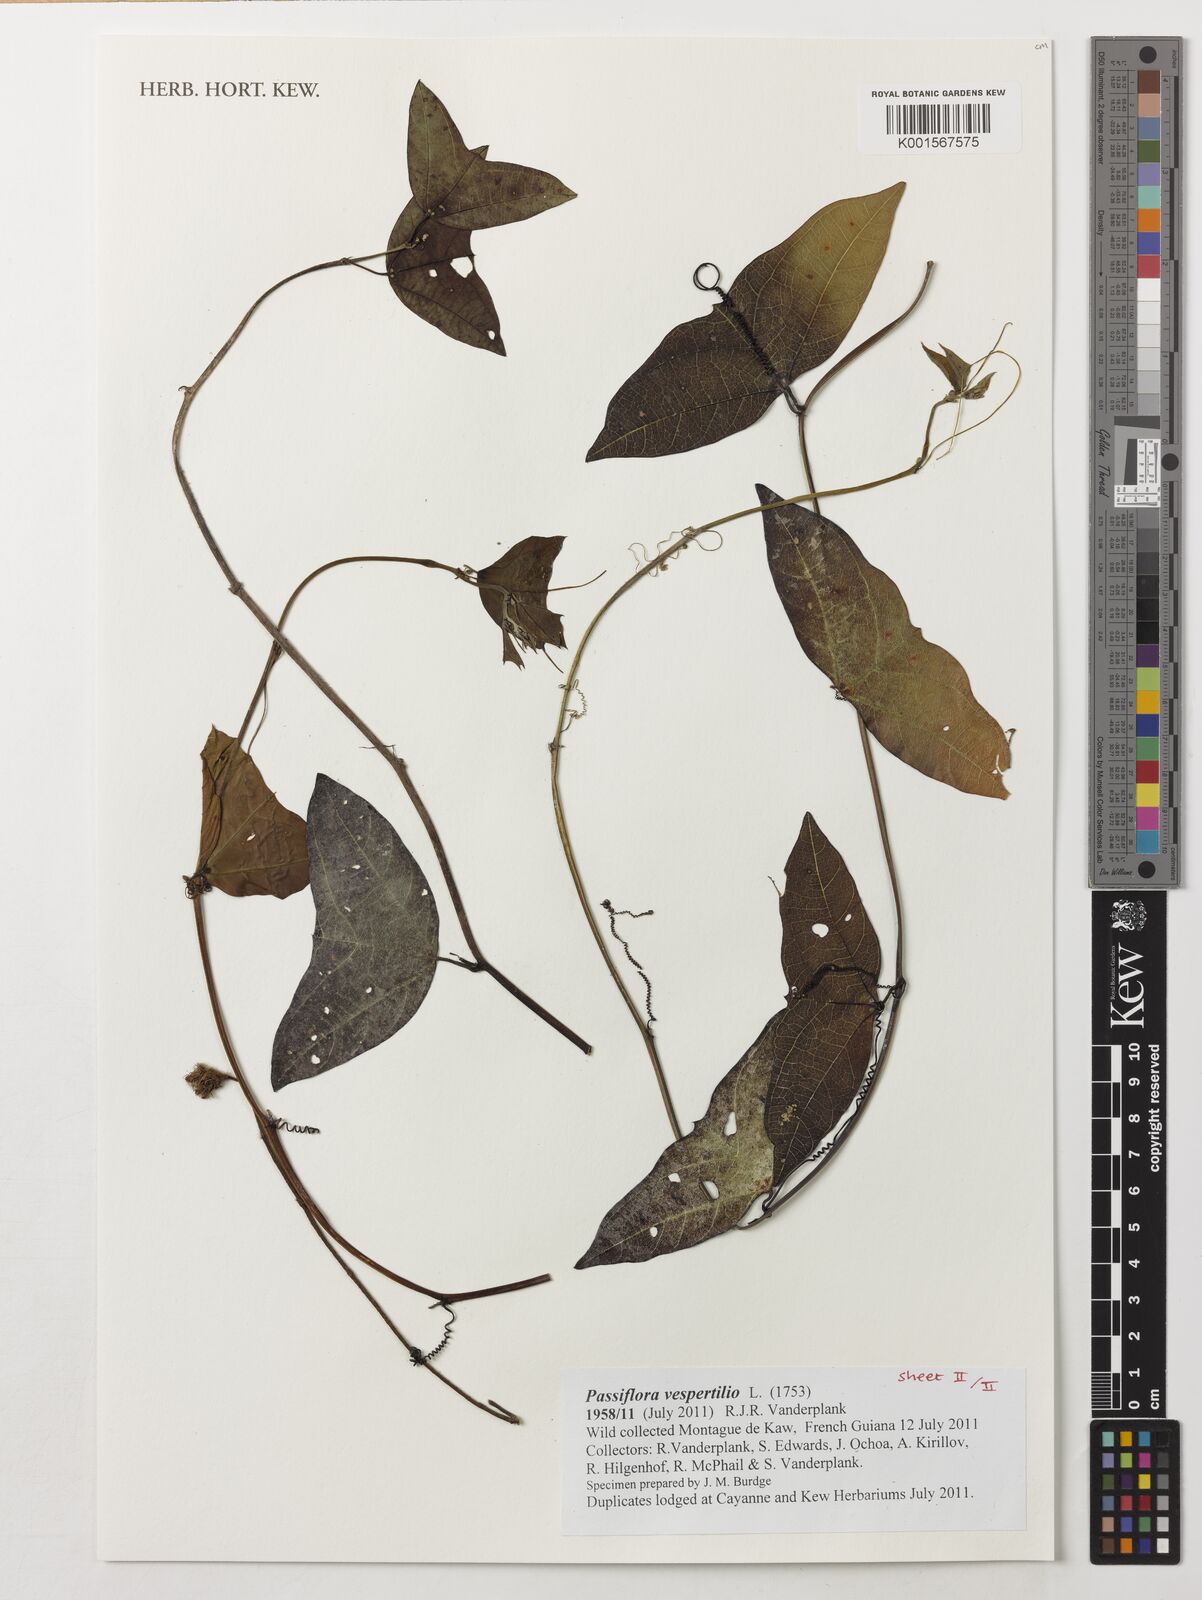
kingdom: Plantae
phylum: Tracheophyta
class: Magnoliopsida
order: Malpighiales
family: Passifloraceae
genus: Passiflora
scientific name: Passiflora vespertilio
